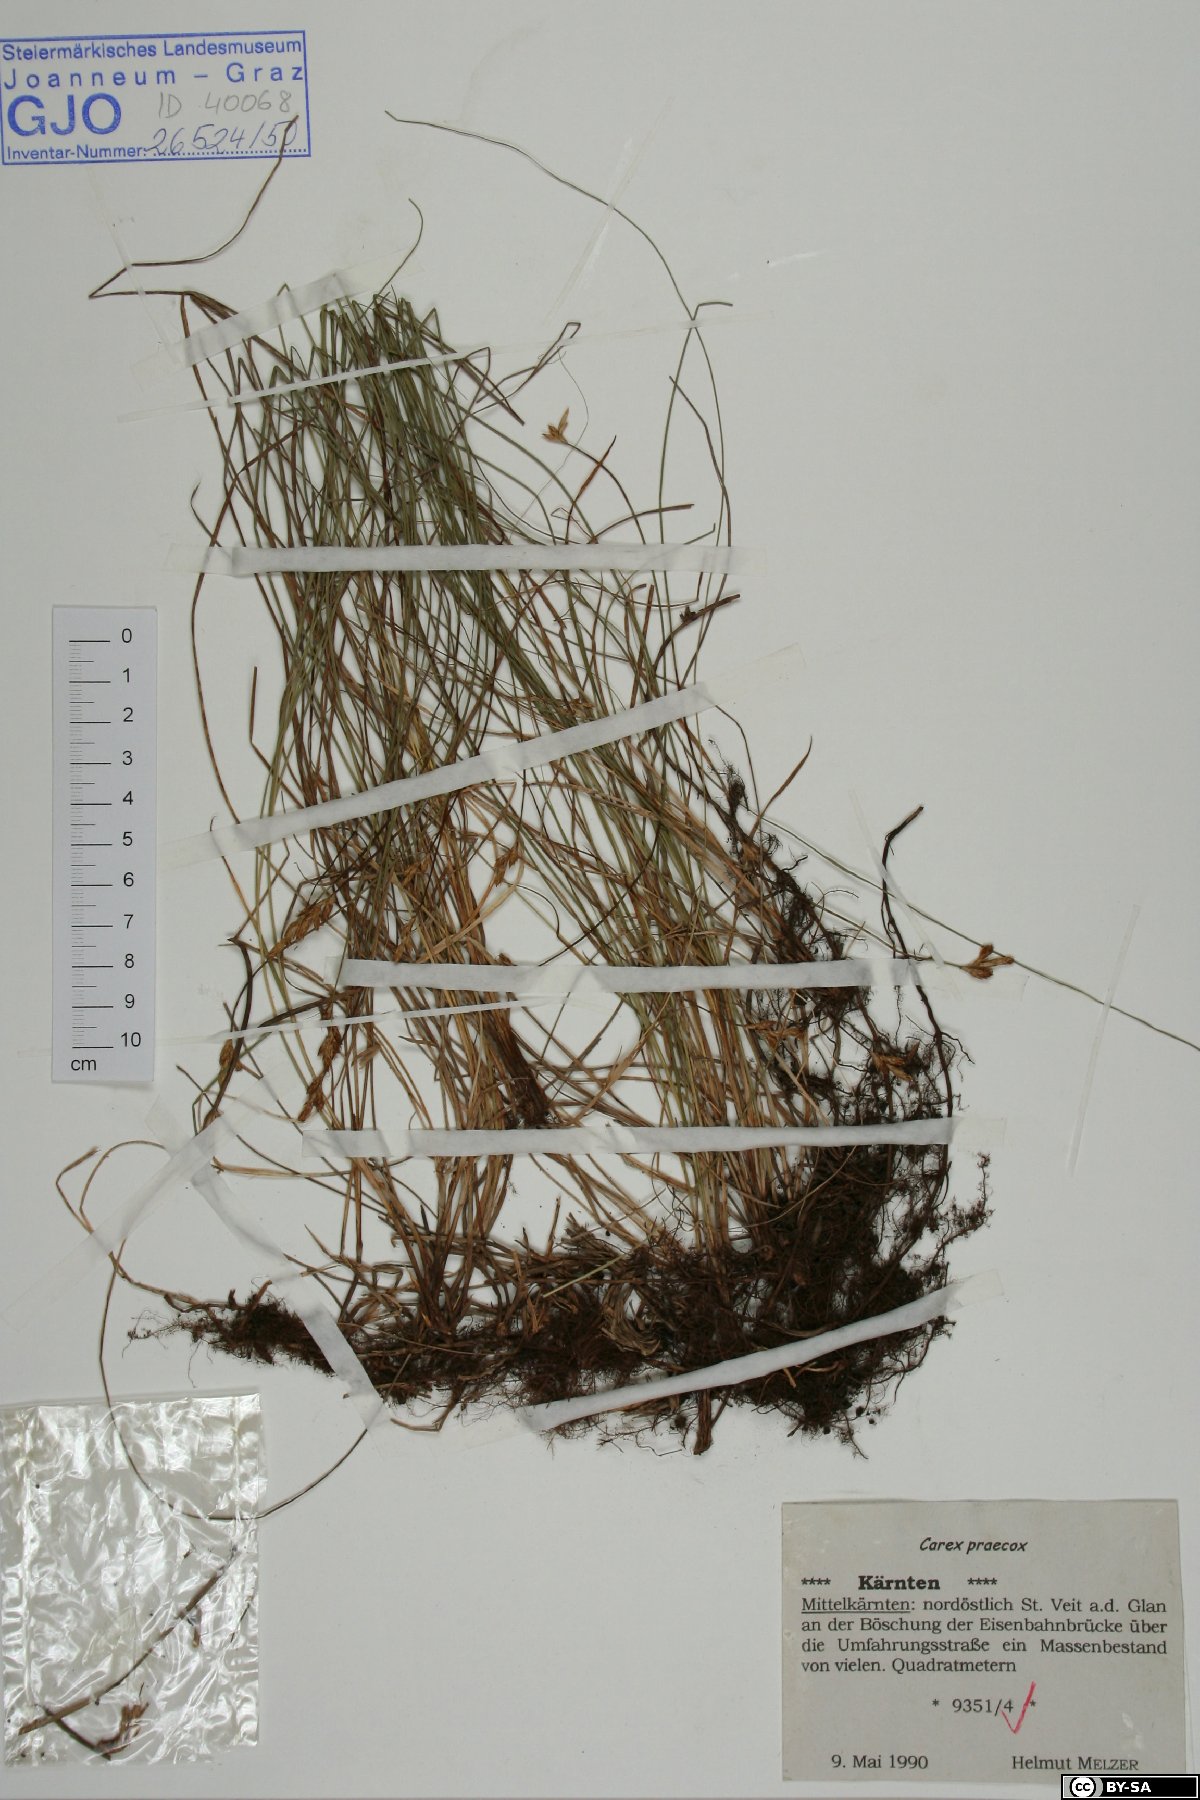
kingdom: Plantae
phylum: Tracheophyta
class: Liliopsida
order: Poales
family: Cyperaceae
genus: Carex
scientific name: Carex praecox
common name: Early sedge
